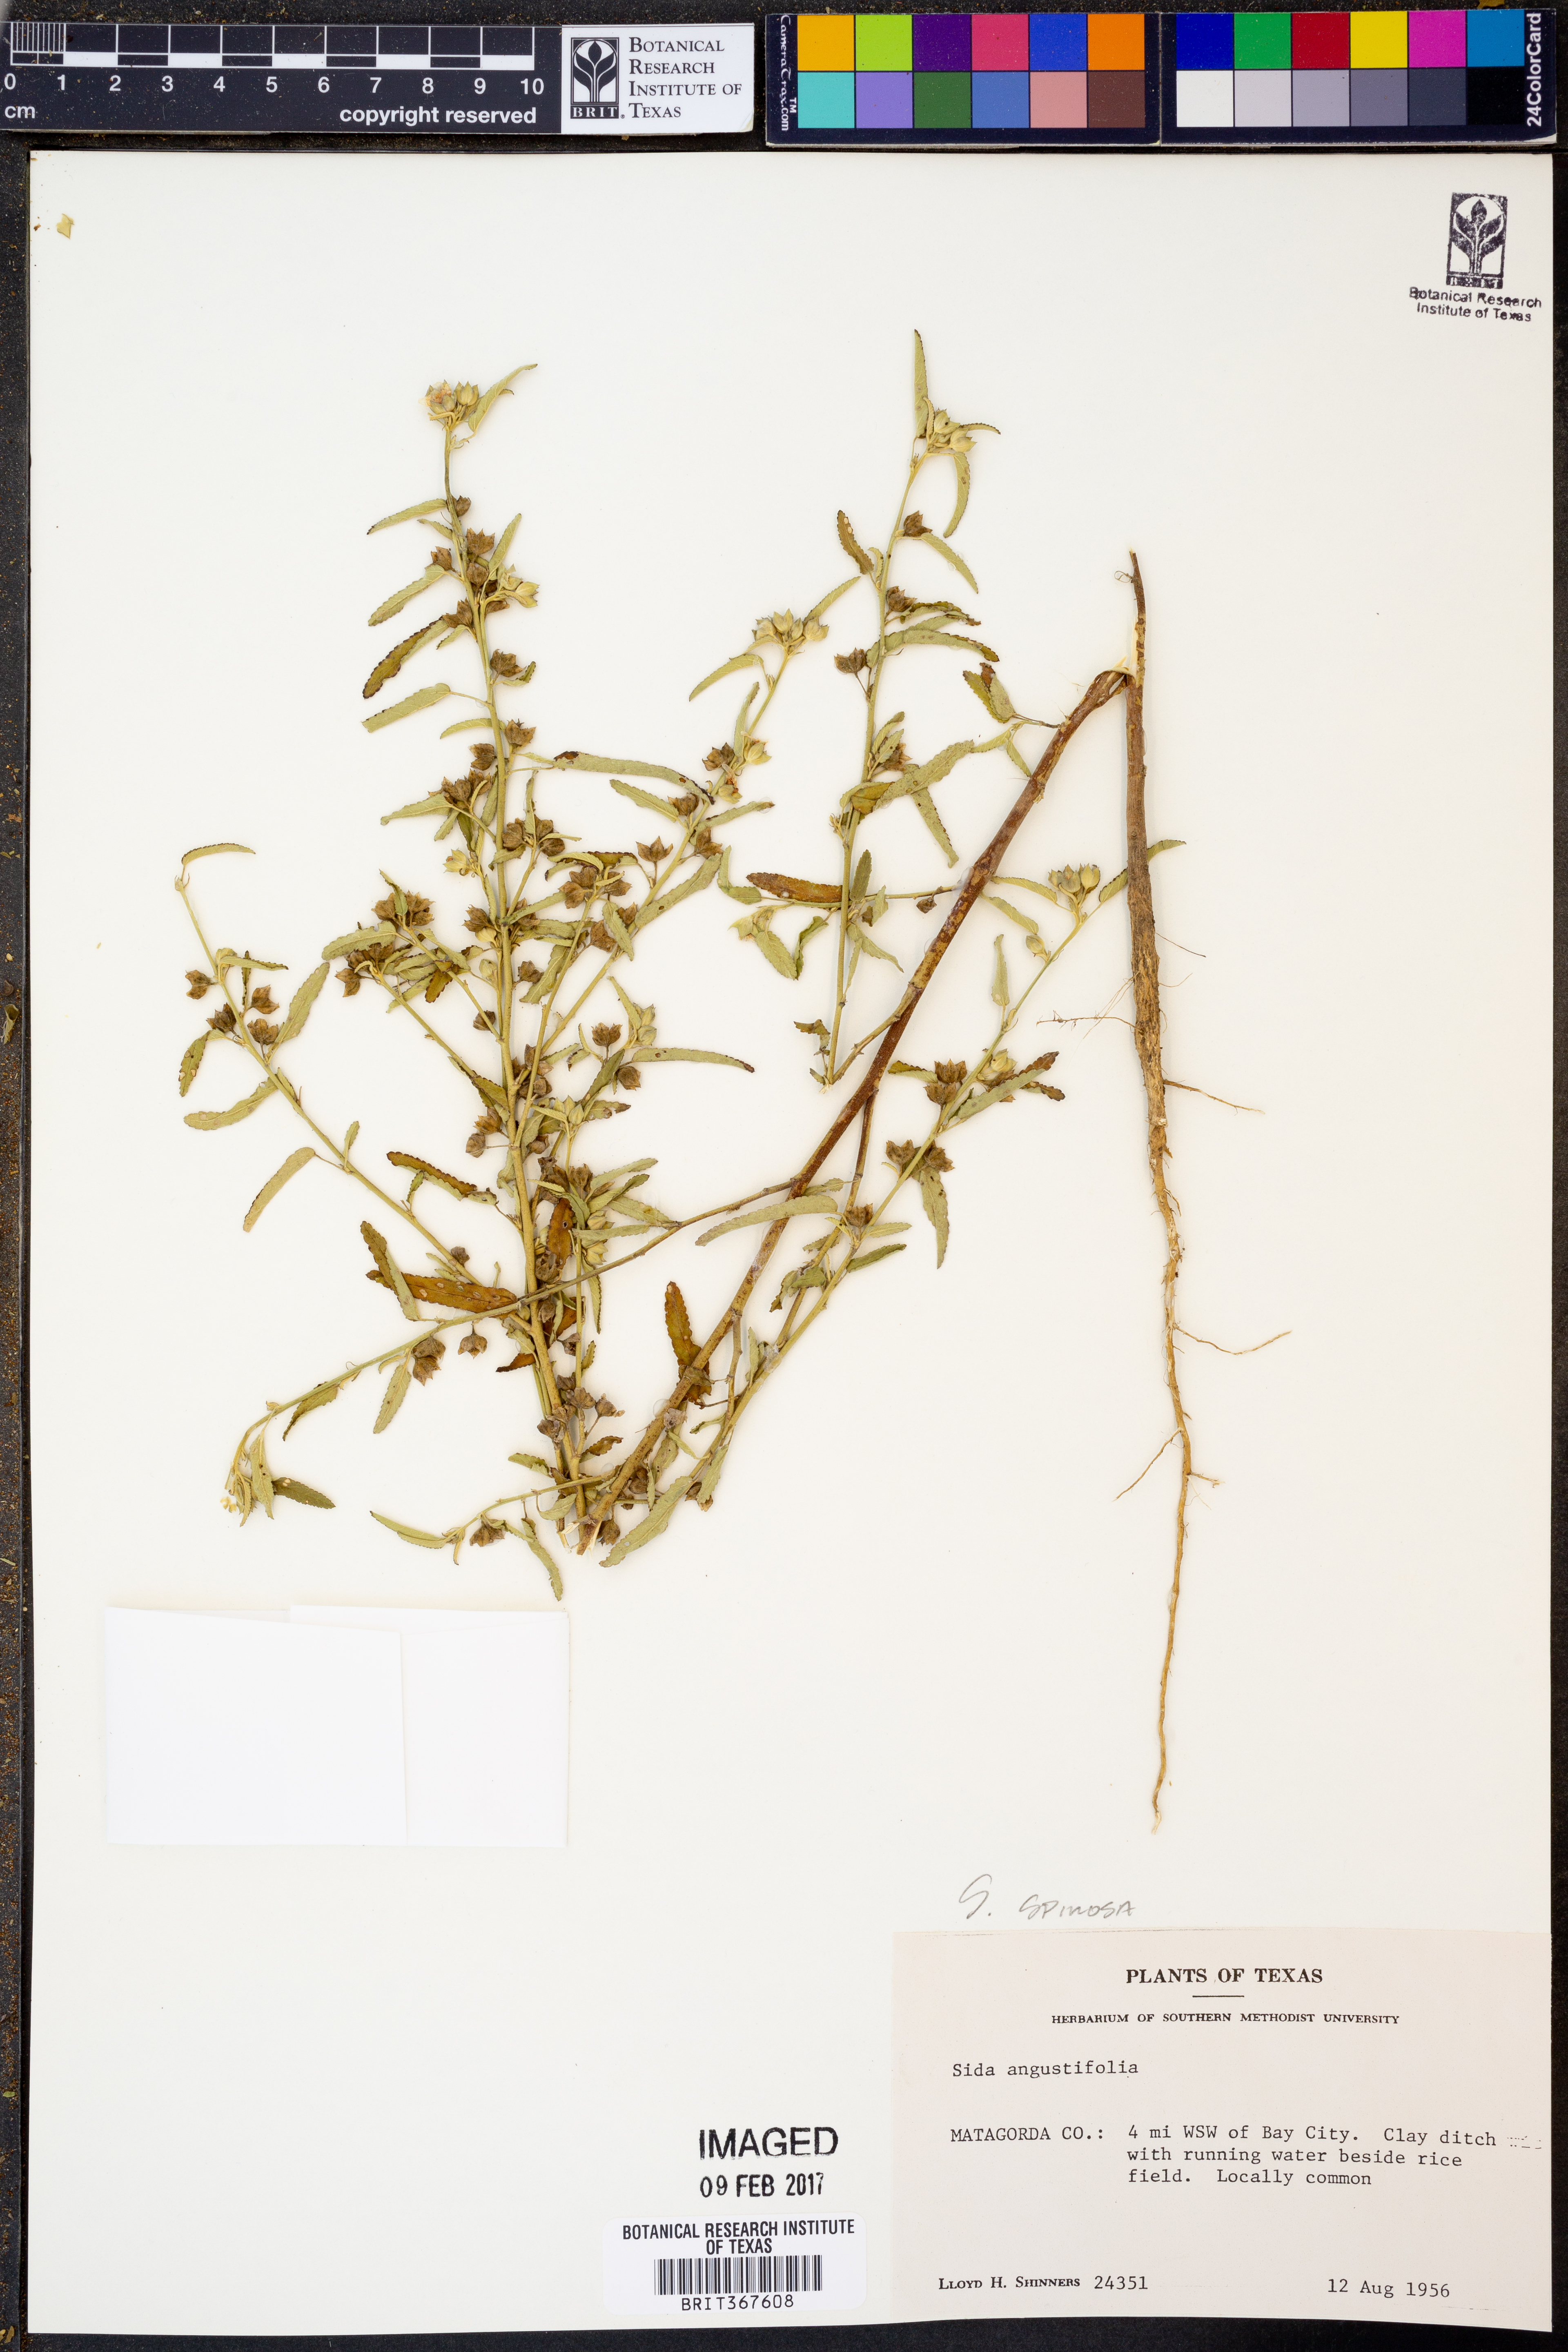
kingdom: Plantae
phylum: Tracheophyta
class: Magnoliopsida
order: Malvales
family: Malvaceae
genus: Sida
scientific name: Sida spinosa
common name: Prickly fanpetals
